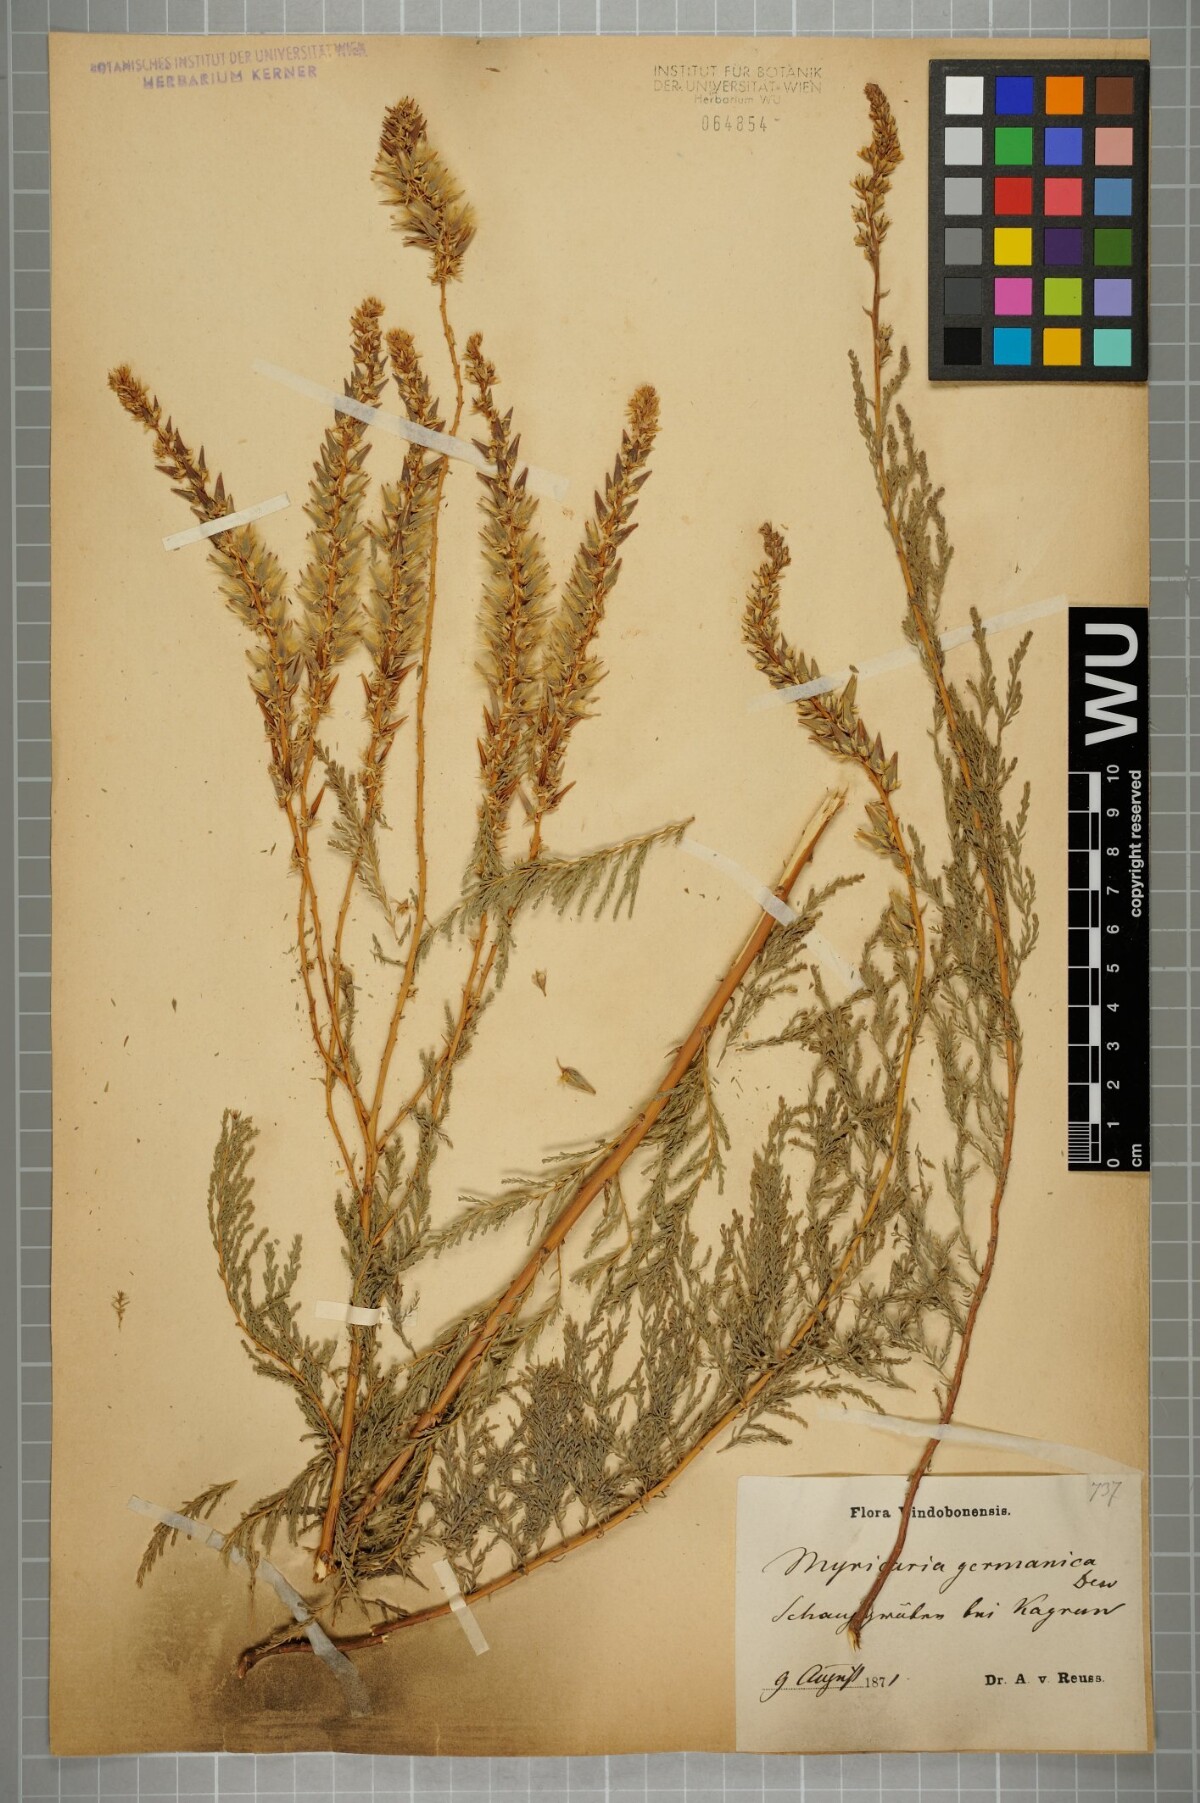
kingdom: Plantae
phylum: Tracheophyta
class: Magnoliopsida
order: Caryophyllales
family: Tamaricaceae
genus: Myricaria
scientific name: Myricaria germanica
